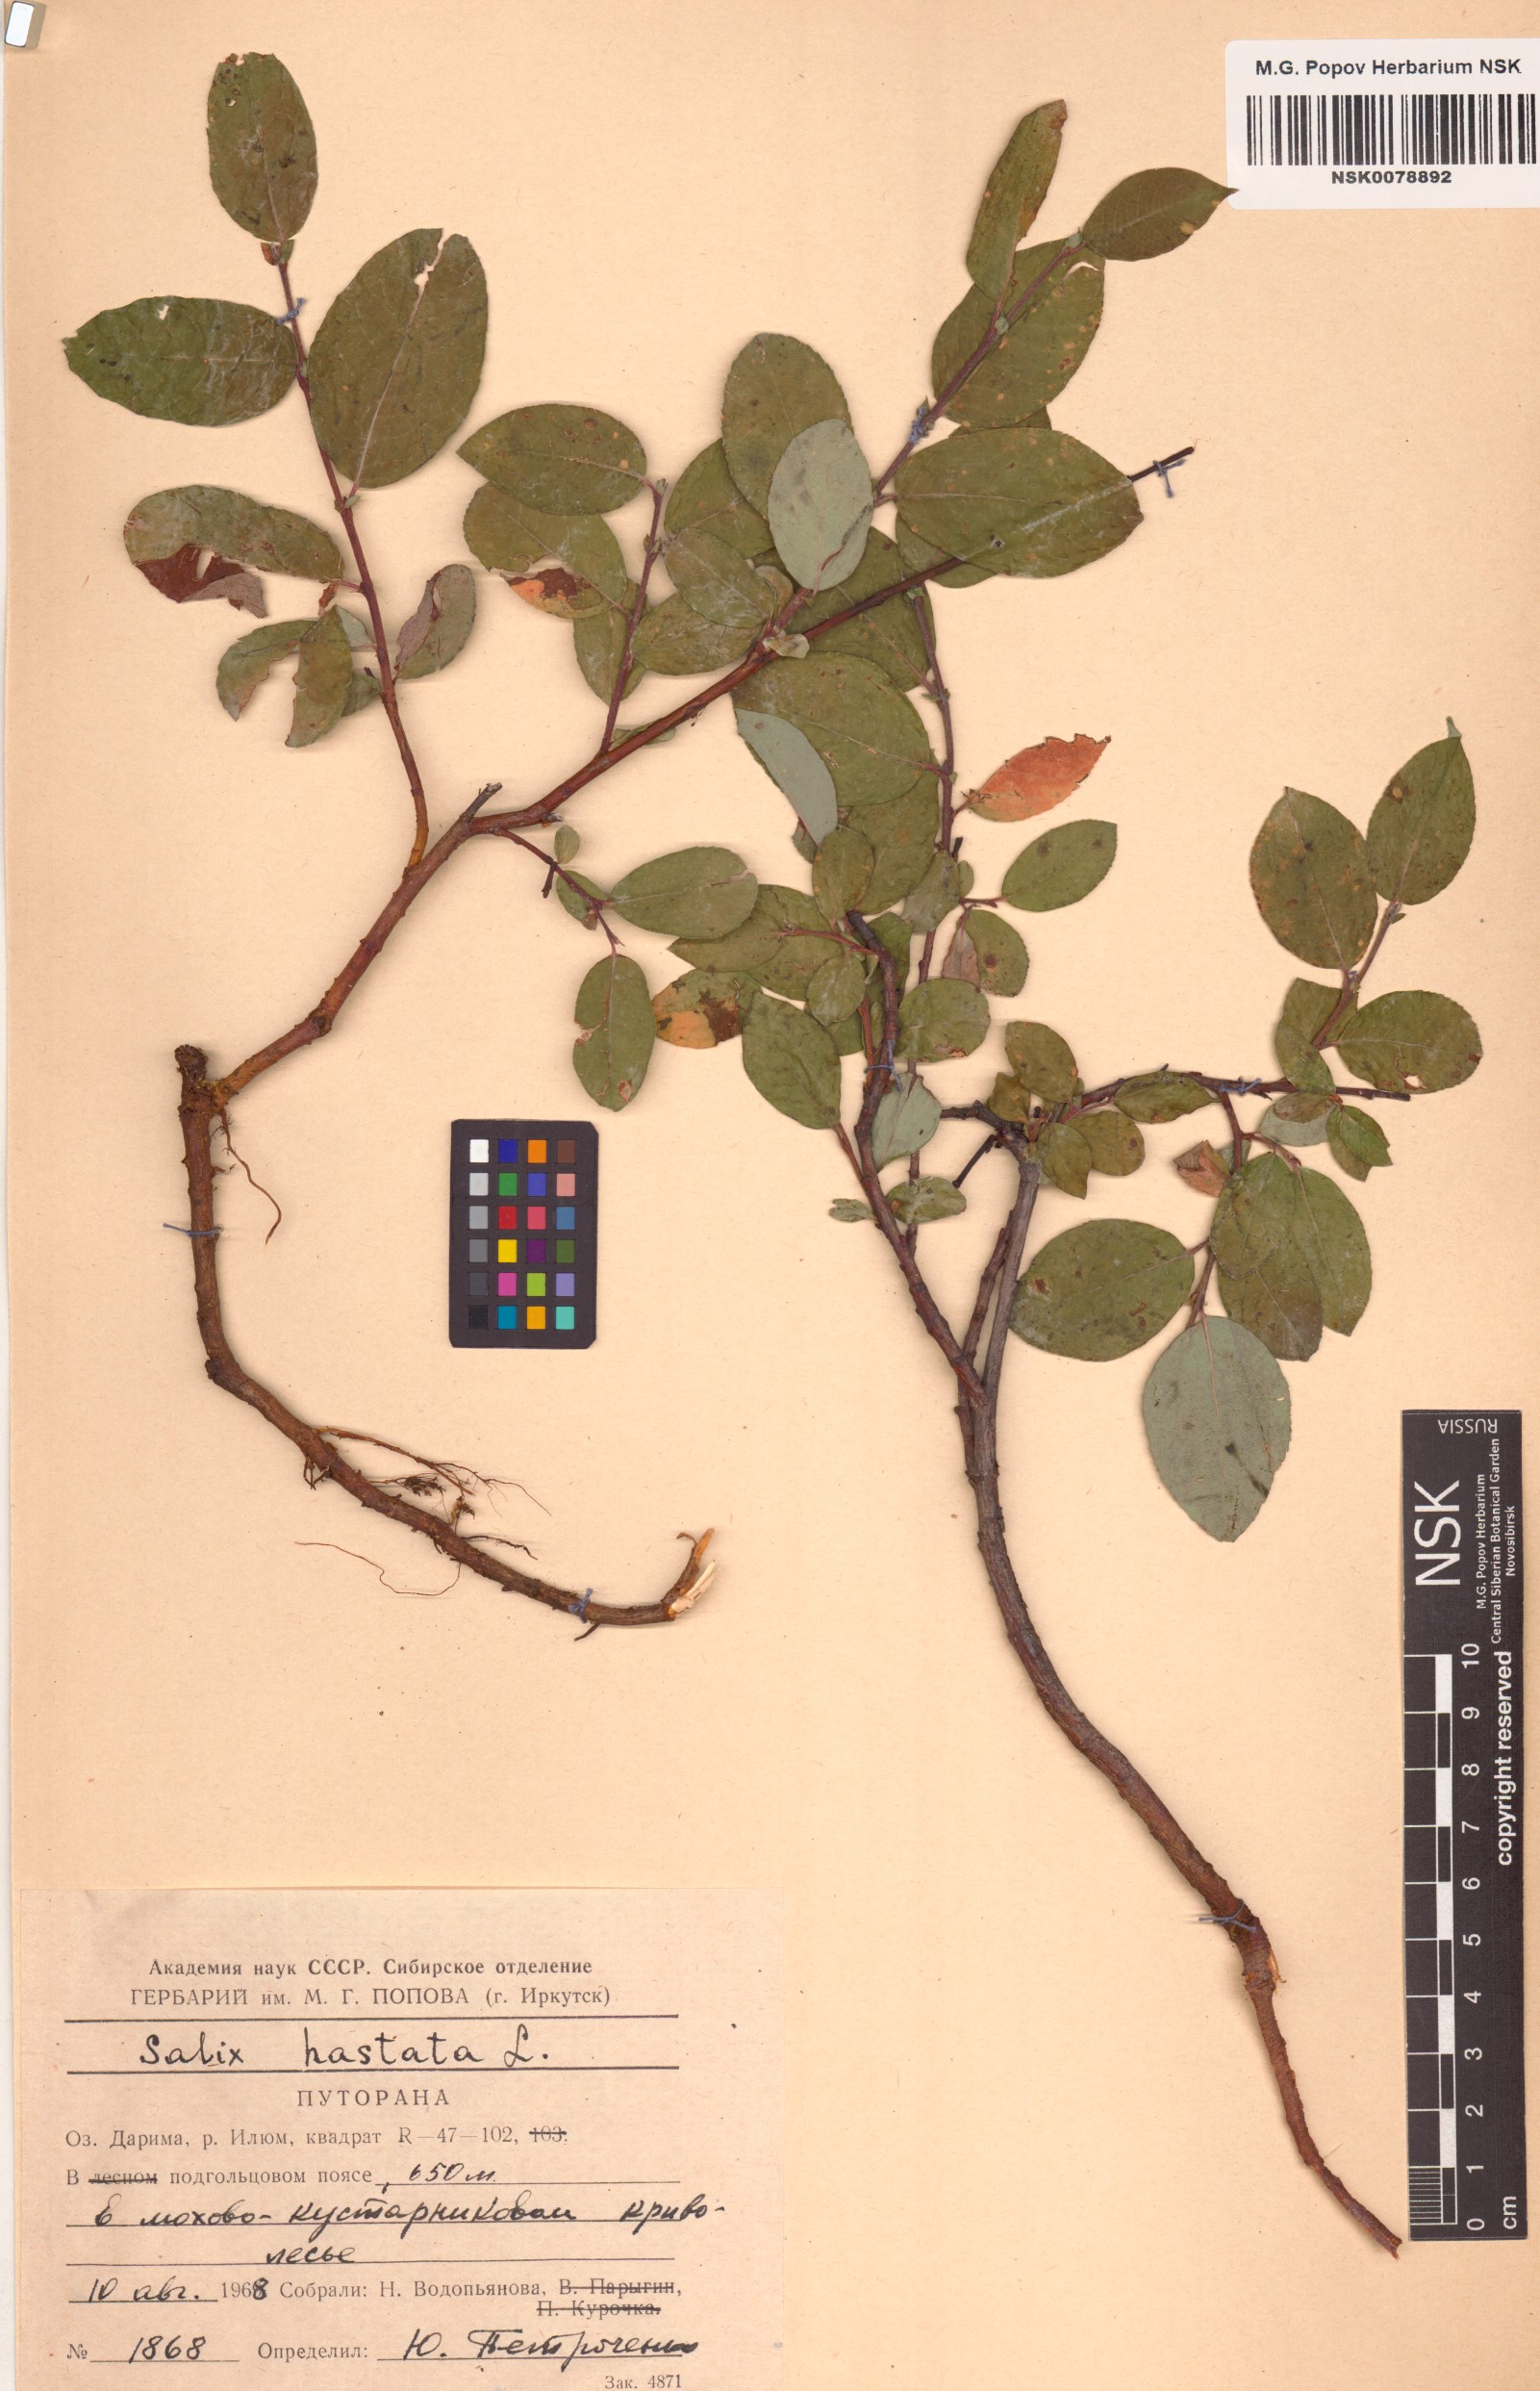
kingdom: Plantae
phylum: Tracheophyta
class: Magnoliopsida
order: Malpighiales
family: Salicaceae
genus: Salix
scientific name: Salix hastata
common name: Halberd willow
